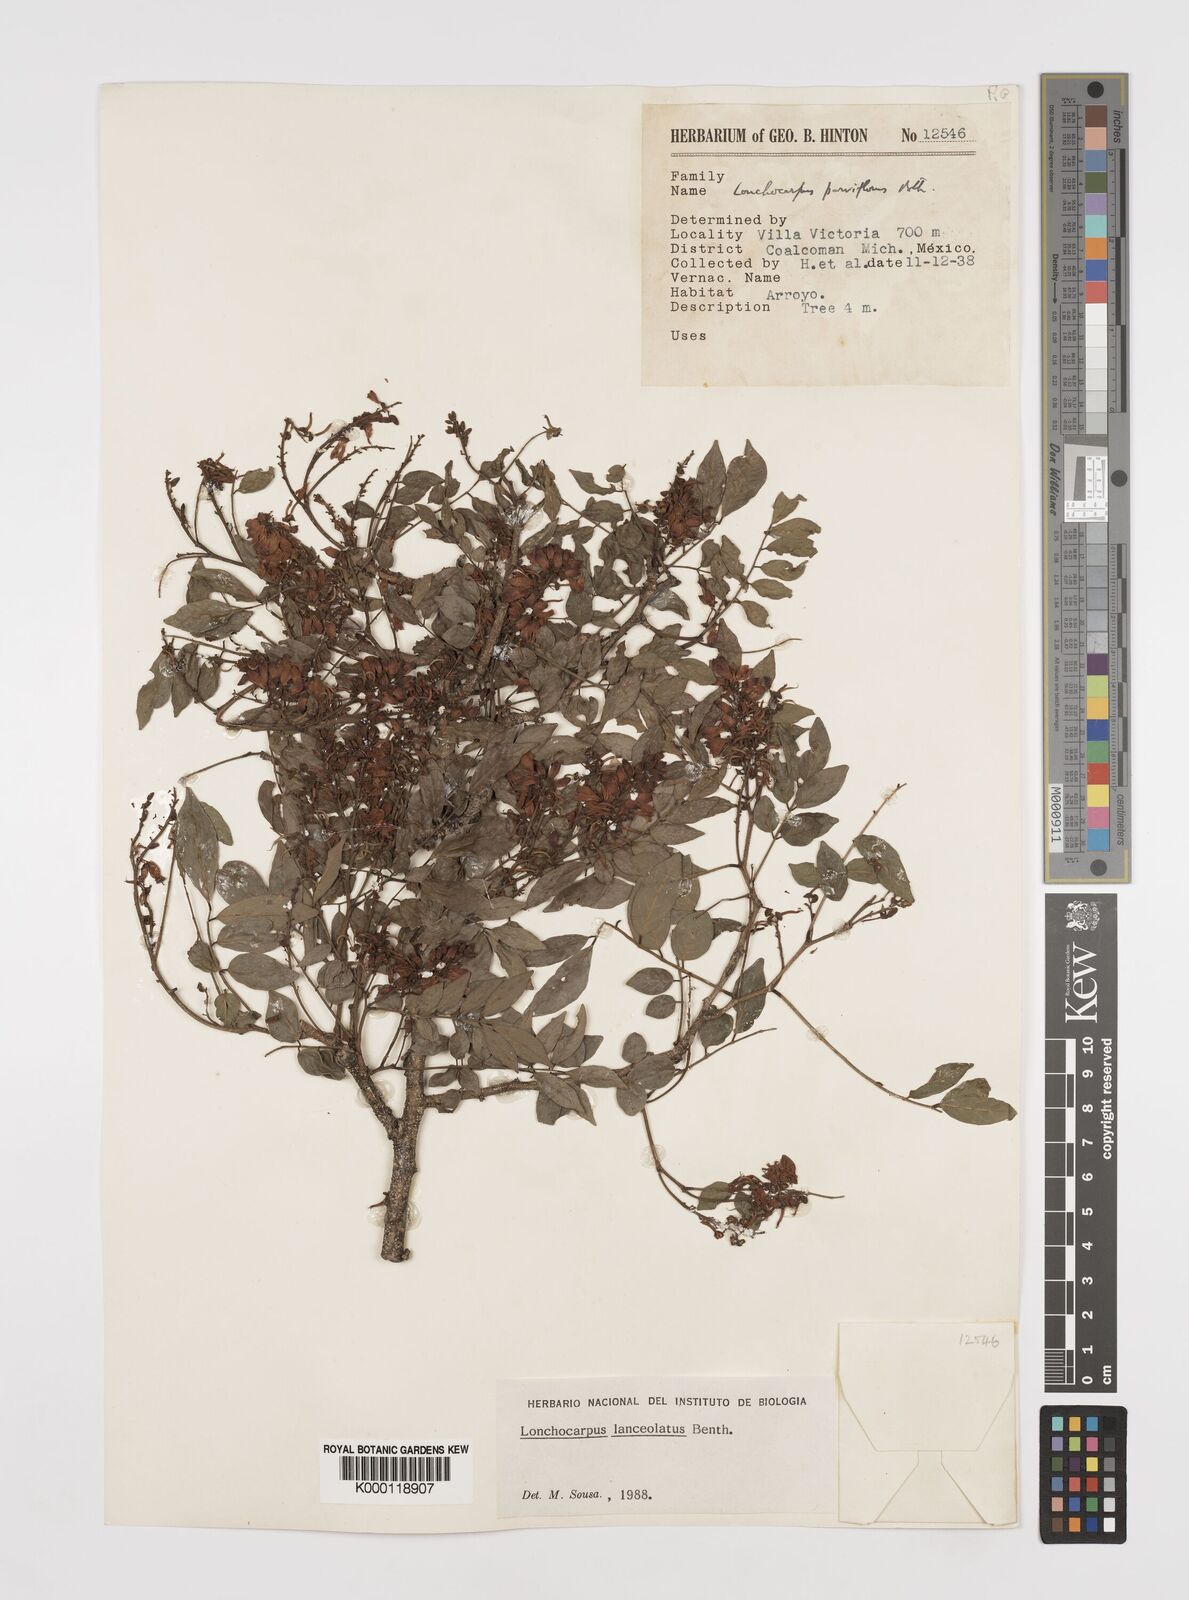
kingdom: Plantae
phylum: Tracheophyta
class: Magnoliopsida
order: Fabales
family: Fabaceae
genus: Lonchocarpus
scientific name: Lonchocarpus lanceolatus
